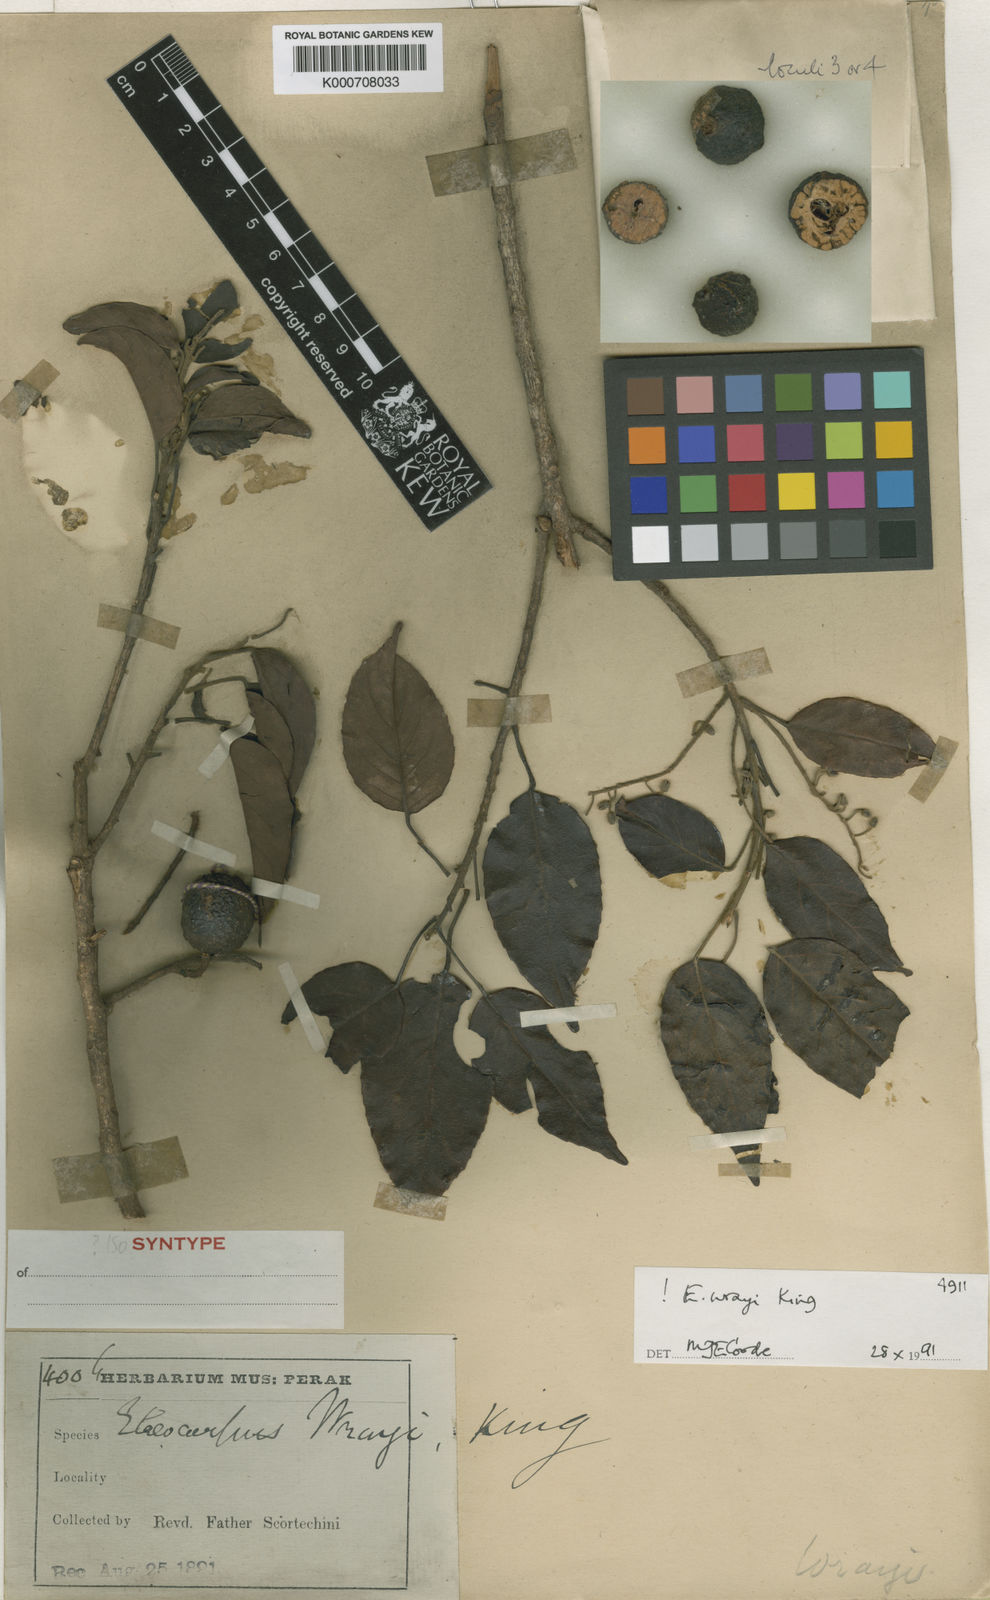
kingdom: Plantae
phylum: Tracheophyta
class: Magnoliopsida
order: Oxalidales
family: Elaeocarpaceae
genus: Elaeocarpus
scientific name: Elaeocarpus nitidus
